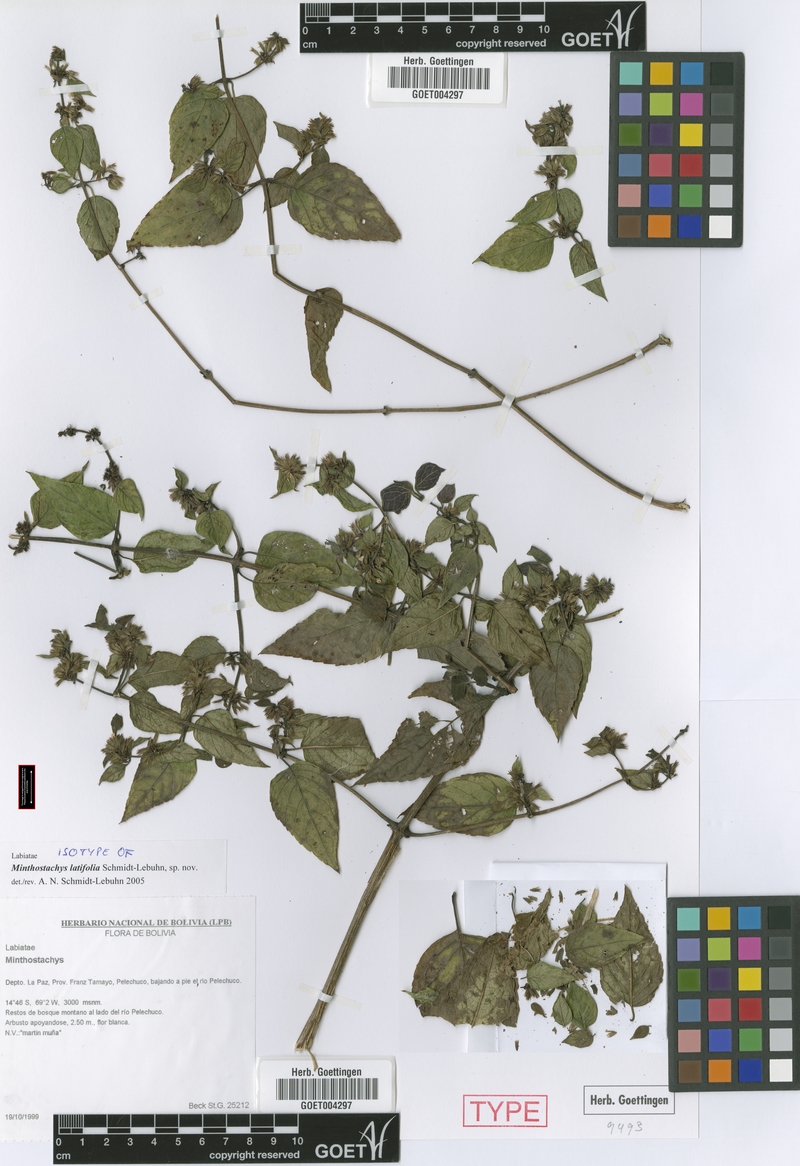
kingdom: Plantae
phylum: Tracheophyta
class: Magnoliopsida
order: Lamiales
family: Lamiaceae
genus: Minthostachys
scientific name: Minthostachys latifolia
